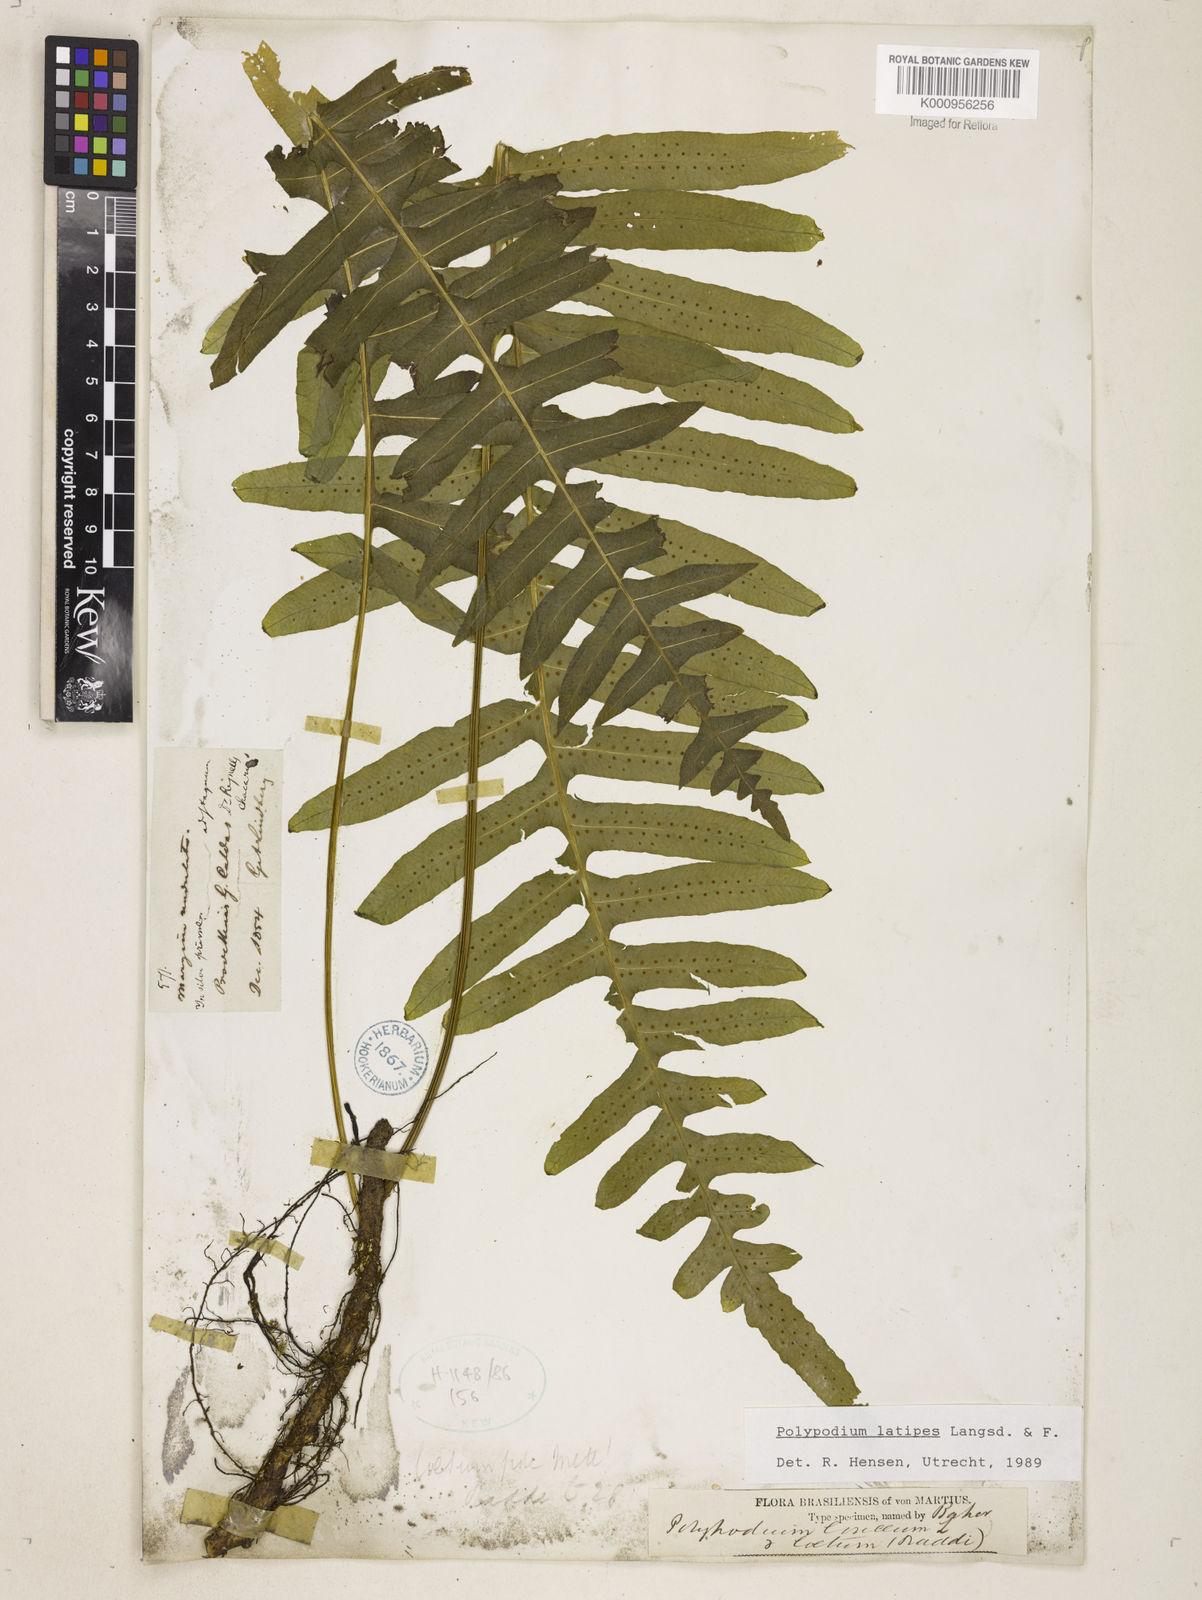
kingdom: Plantae
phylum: Tracheophyta
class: Polypodiopsida
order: Polypodiales
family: Polypodiaceae
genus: Serpocaulon
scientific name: Serpocaulon loriceum
